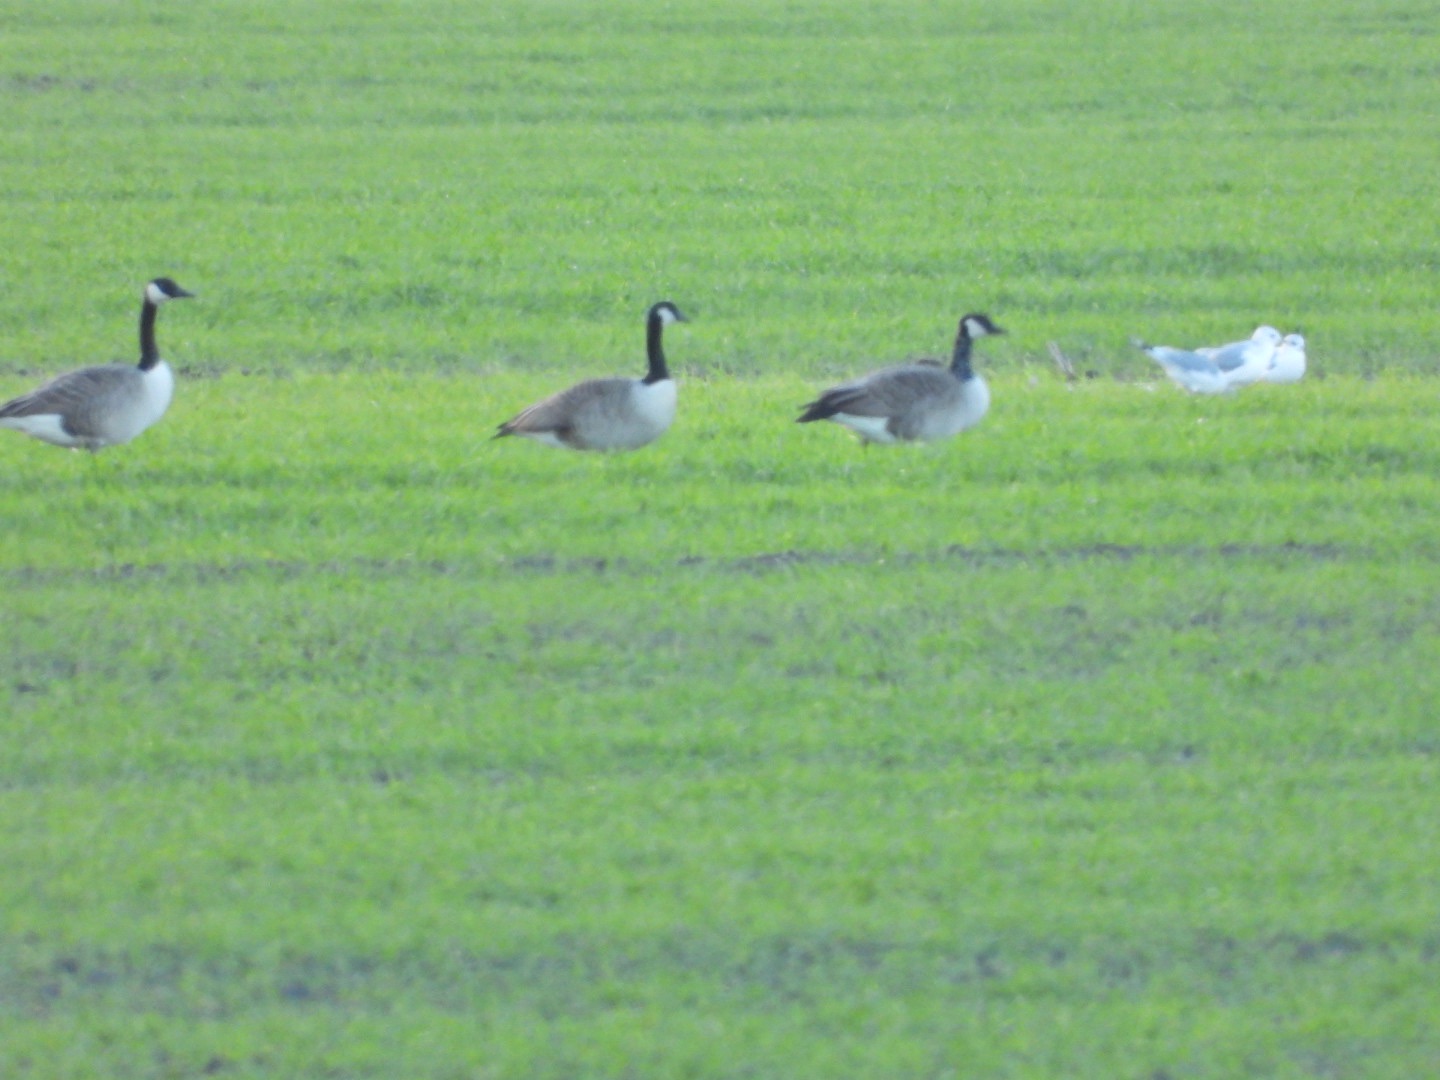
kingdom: Animalia
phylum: Chordata
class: Aves
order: Anseriformes
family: Anatidae
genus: Branta
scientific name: Branta canadensis
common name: Canadagås
